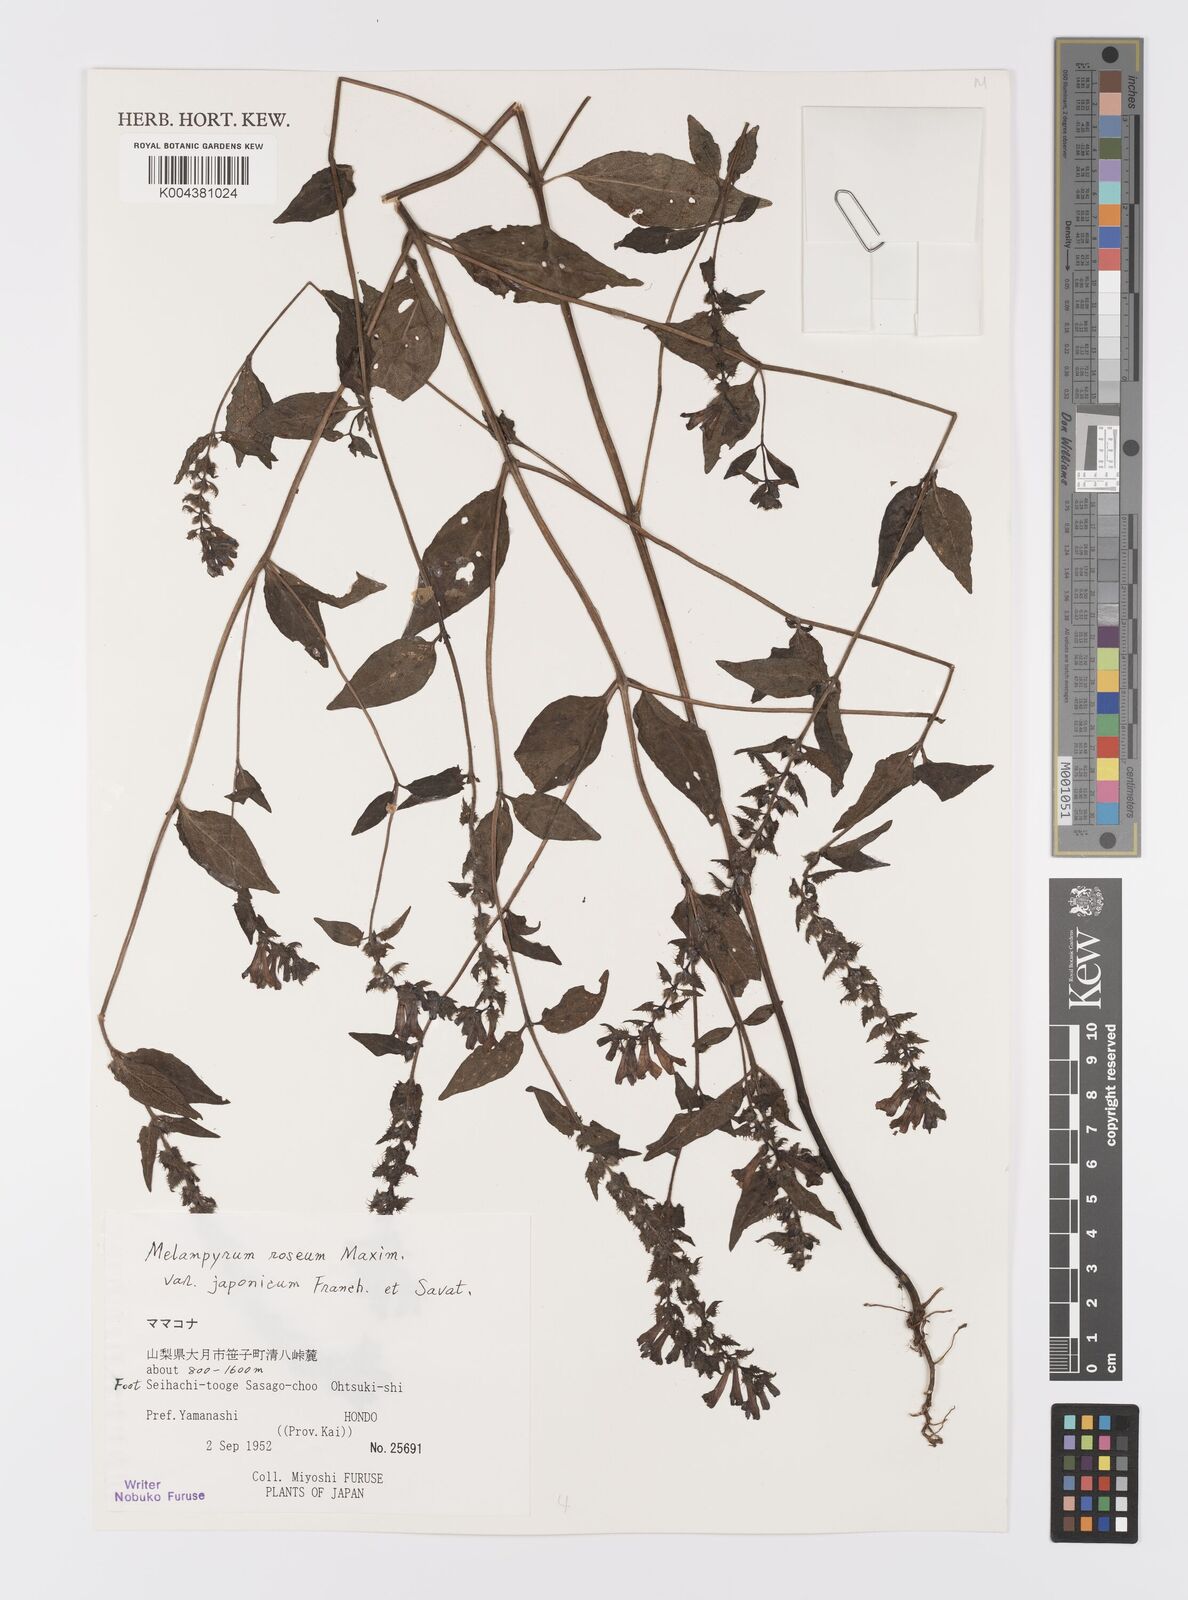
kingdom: Plantae
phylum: Tracheophyta
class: Magnoliopsida
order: Lamiales
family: Orobanchaceae
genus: Melampyrum
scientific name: Melampyrum roseum
